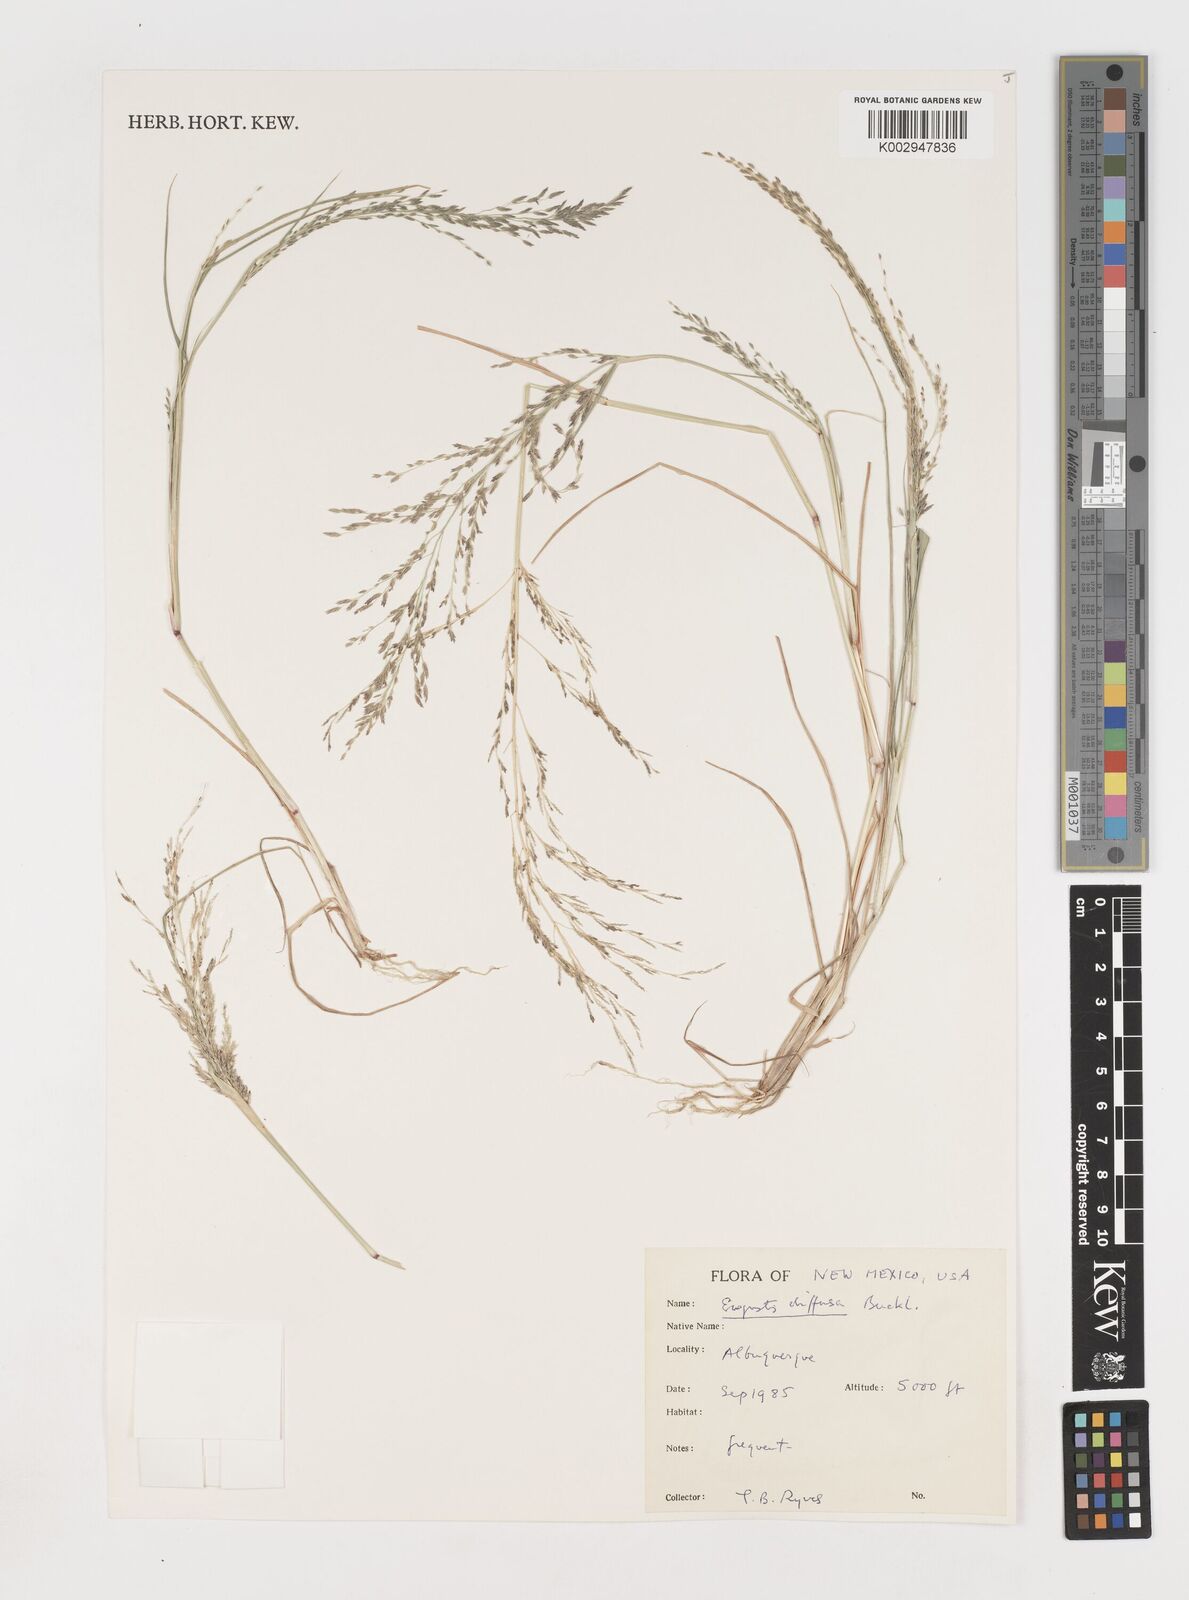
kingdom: Plantae
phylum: Tracheophyta
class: Liliopsida
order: Poales
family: Poaceae
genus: Eragrostis
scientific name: Eragrostis pectinacea
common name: Tufted lovegrass
